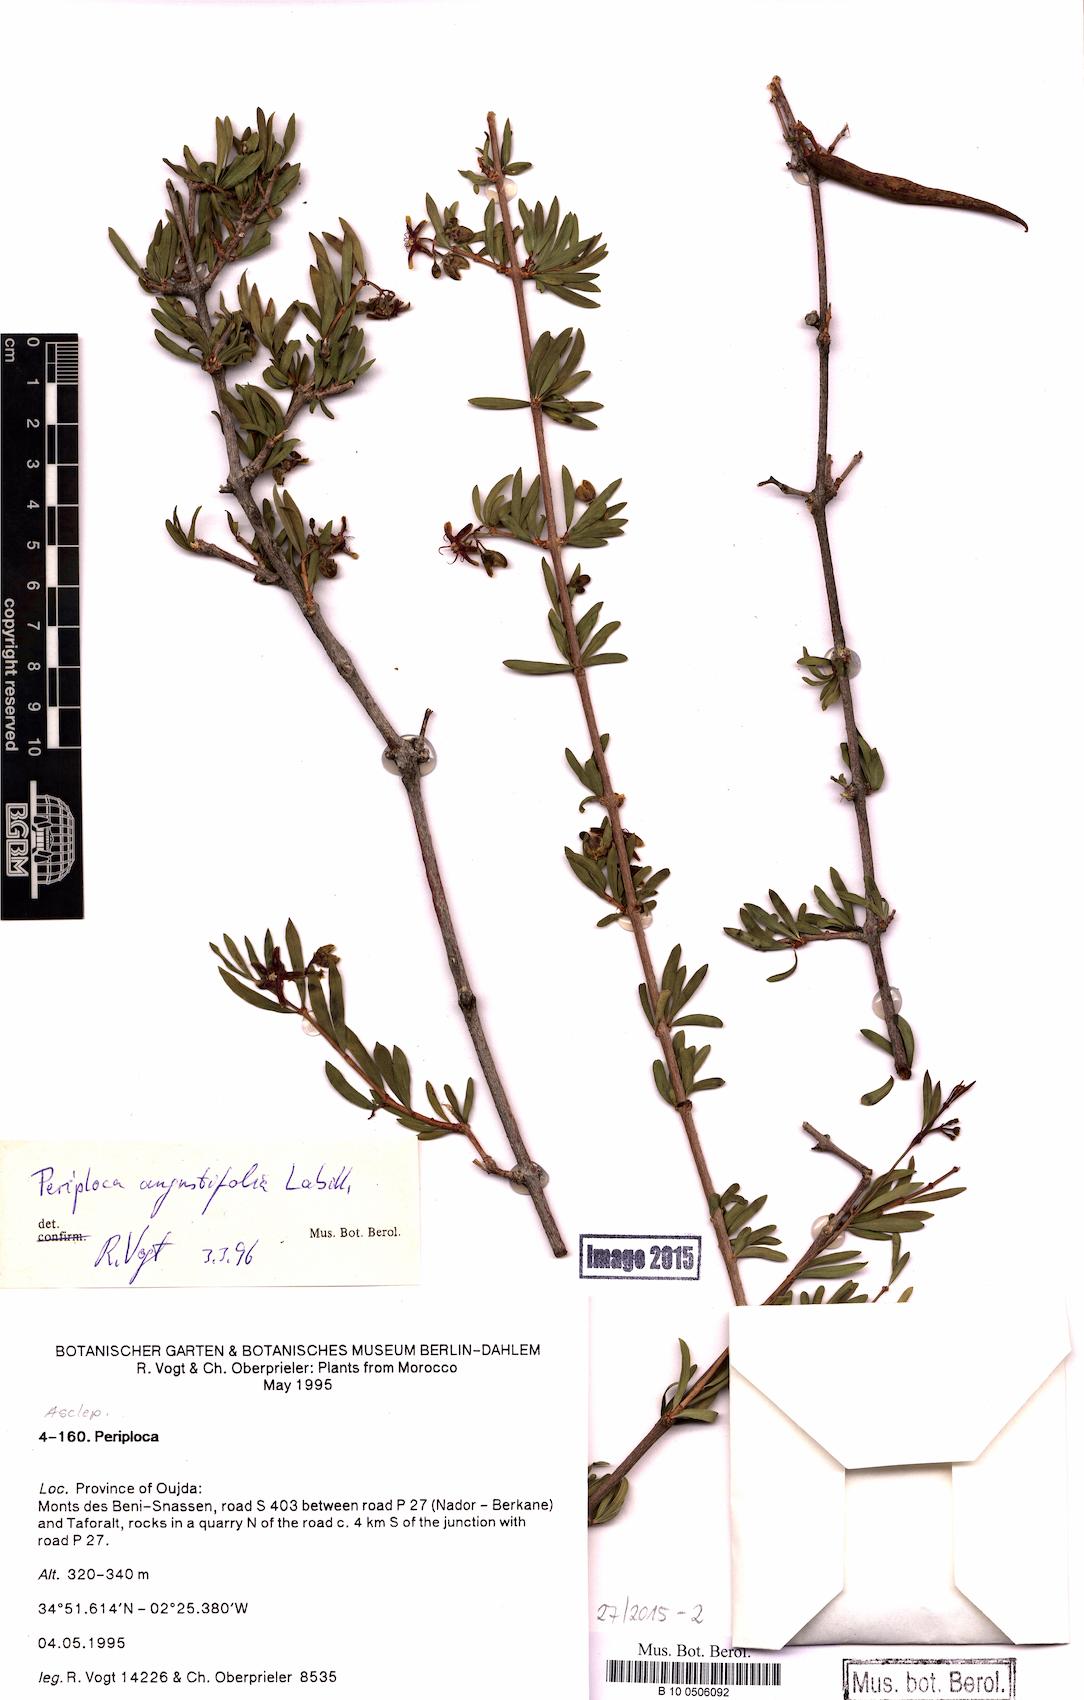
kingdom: Plantae
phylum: Tracheophyta
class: Magnoliopsida
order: Gentianales
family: Apocynaceae
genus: Periploca
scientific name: Periploca laevigata
